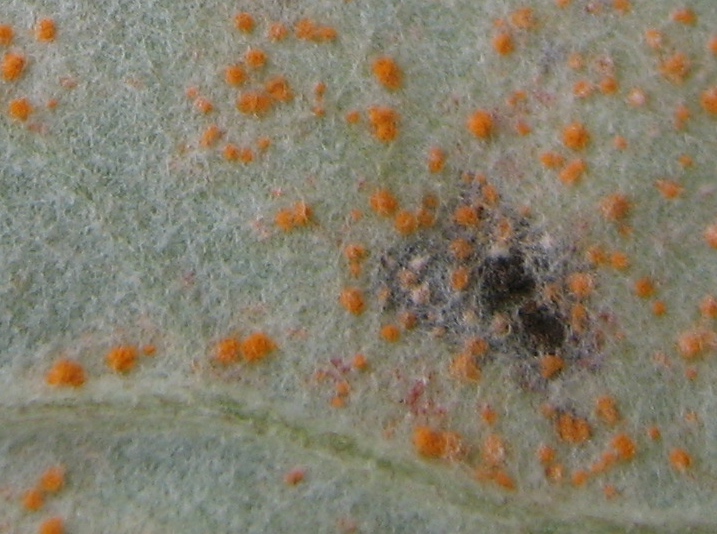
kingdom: Fungi
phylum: Basidiomycota
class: Pucciniomycetes
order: Pucciniales
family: Coleosporiaceae
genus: Coleosporium
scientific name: Coleosporium tussilaginis
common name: almindelig fyrrenålerust
